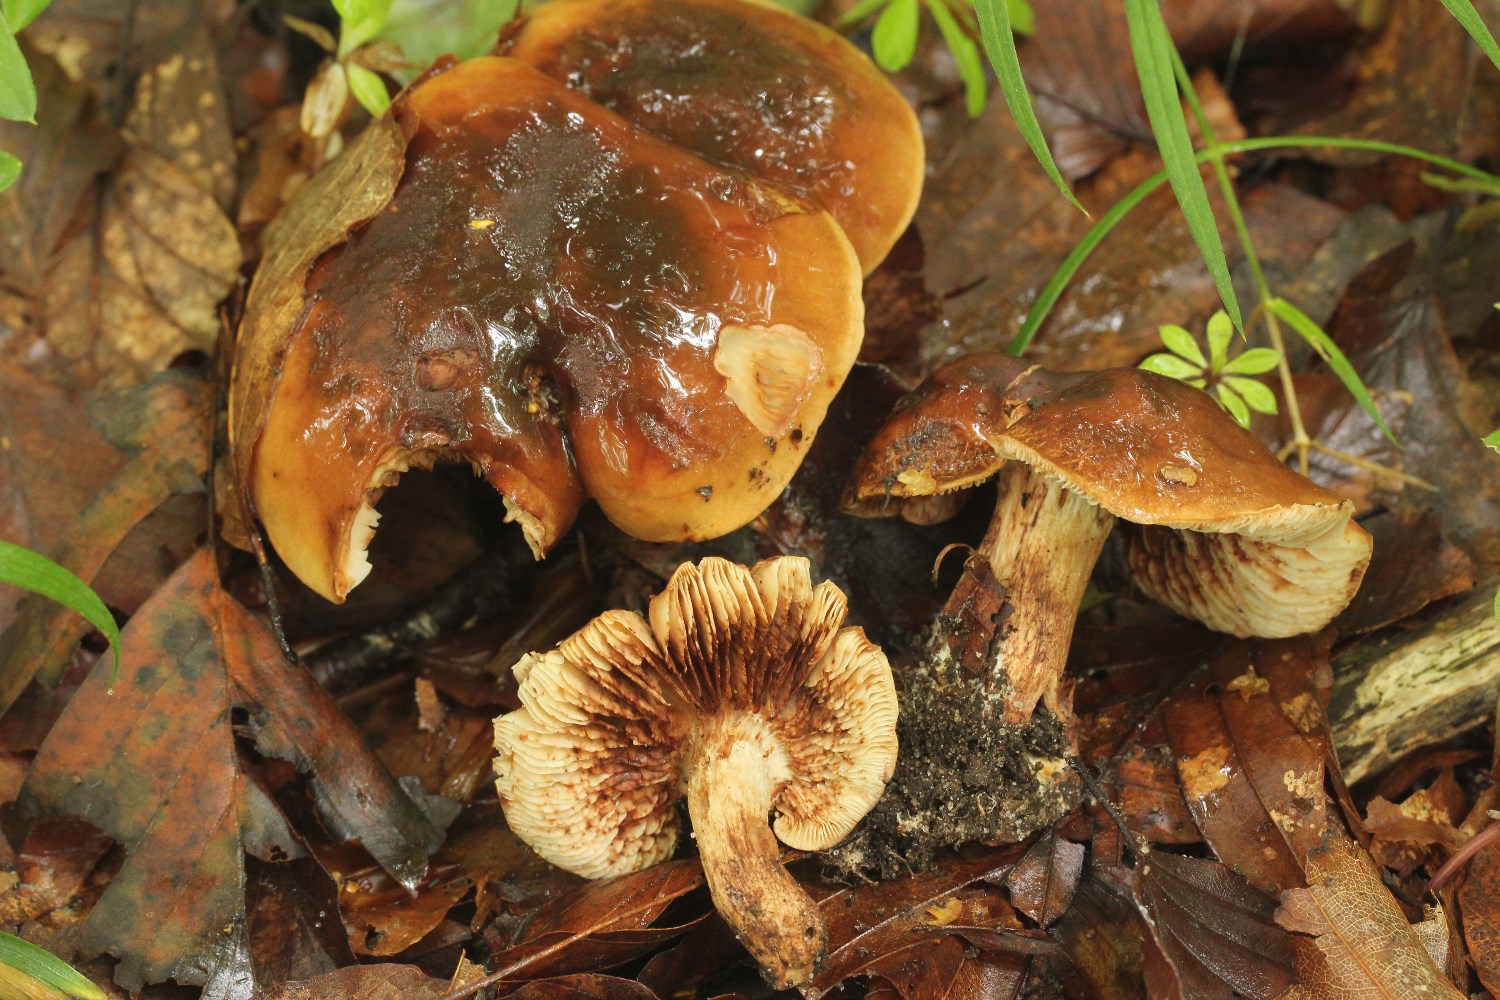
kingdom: Fungi
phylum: Basidiomycota
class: Agaricomycetes
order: Agaricales
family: Tricholomataceae
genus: Tricholoma
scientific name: Tricholoma ustale
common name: sveden ridderhat
